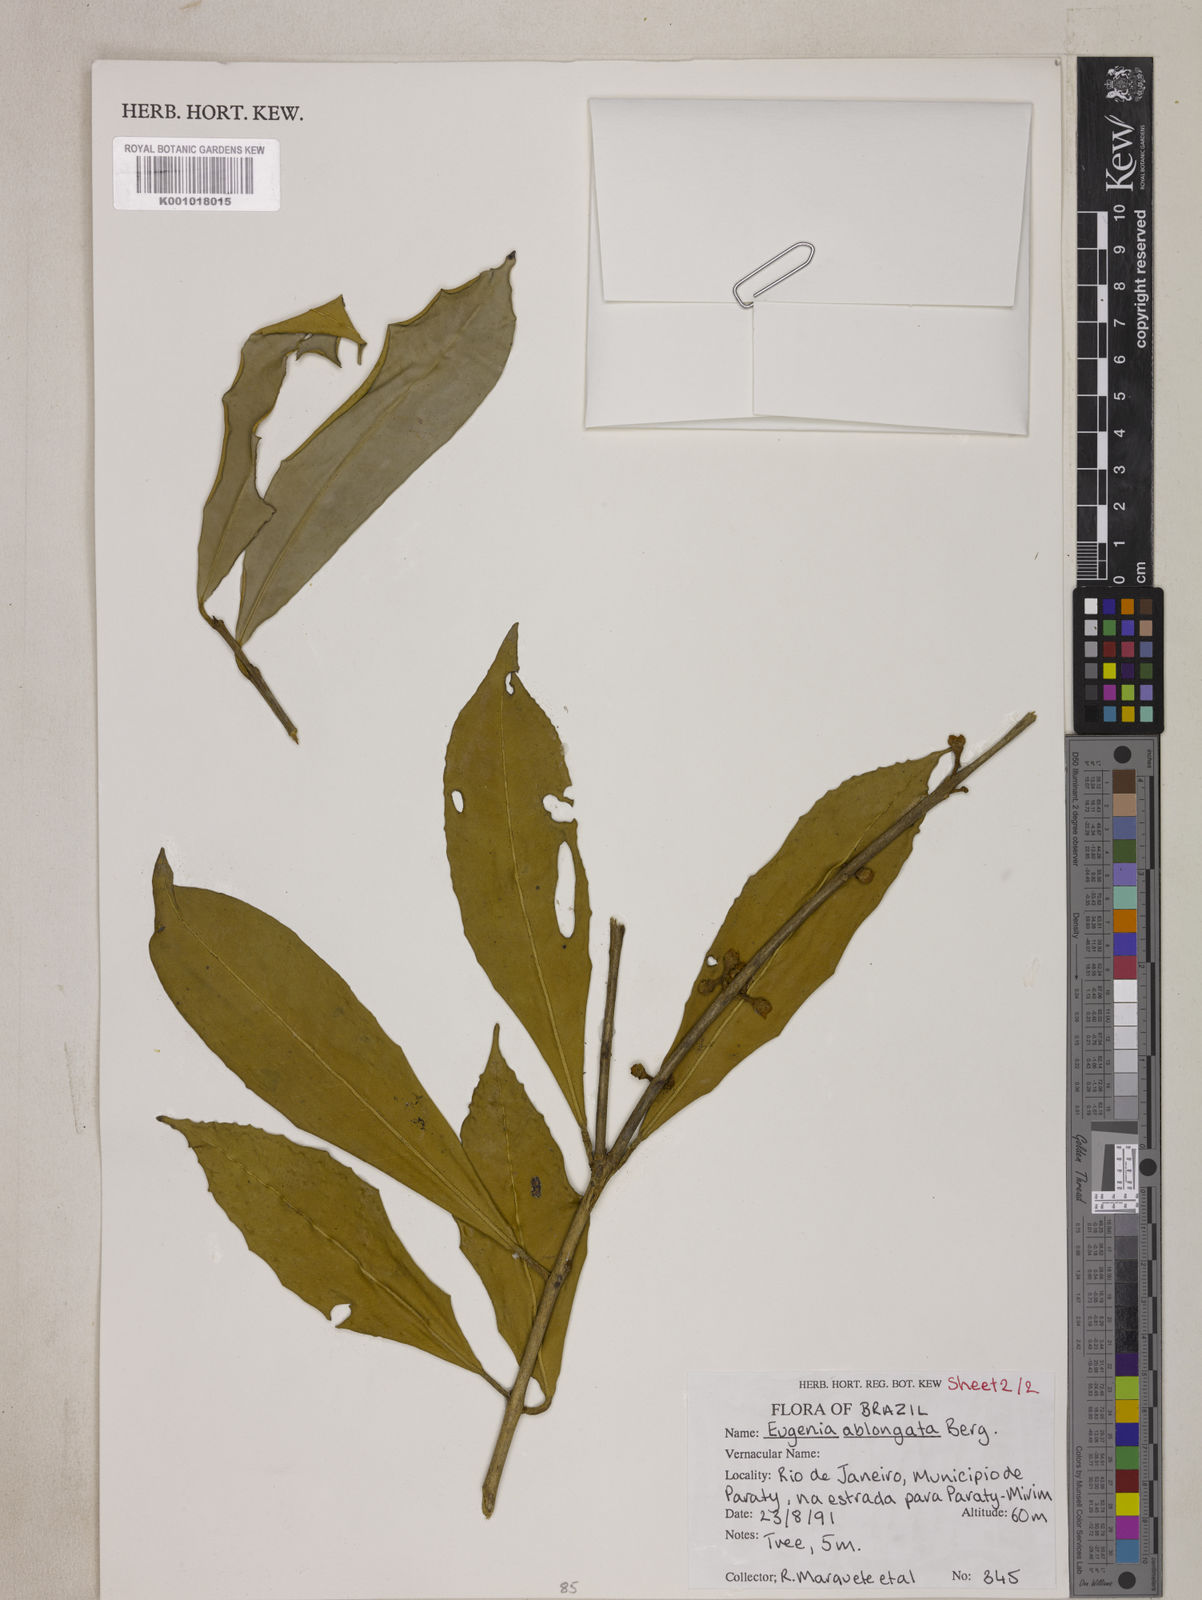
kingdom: Plantae
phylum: Tracheophyta
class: Magnoliopsida
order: Myrtales
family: Myrtaceae
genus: Eugenia
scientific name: Eugenia oblongata
